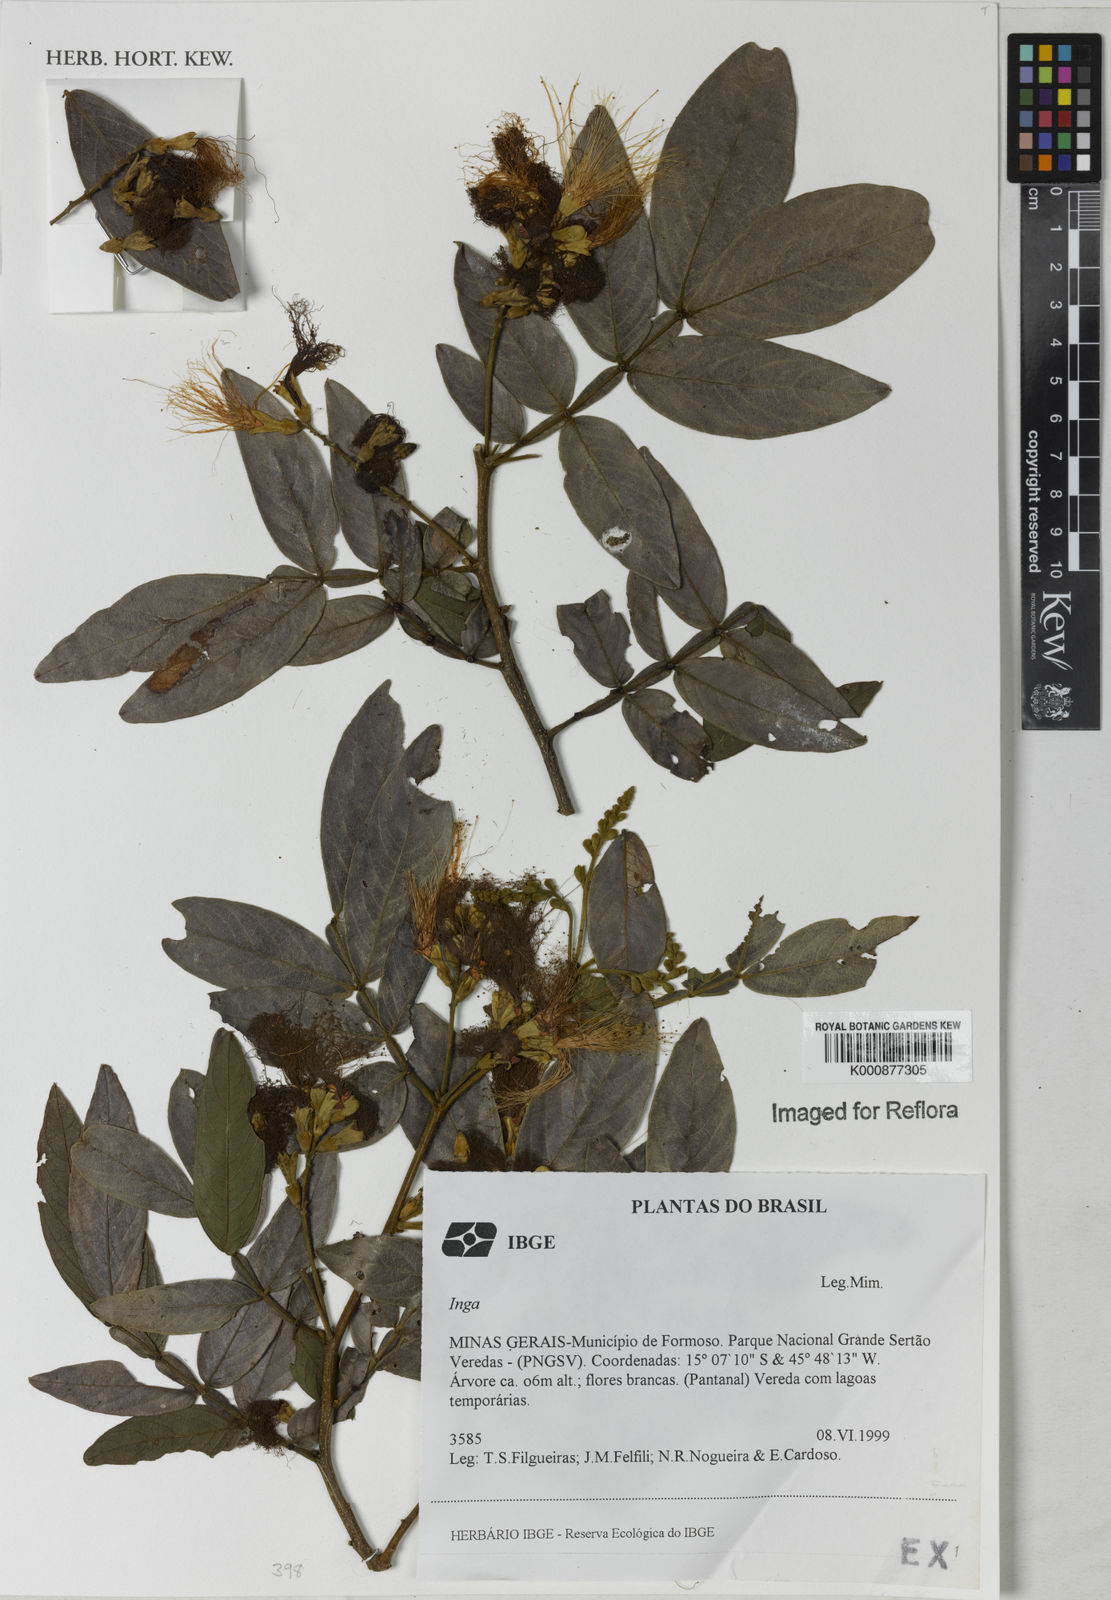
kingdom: Plantae
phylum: Tracheophyta
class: Magnoliopsida
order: Fabales
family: Fabaceae
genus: Inga
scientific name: Inga
